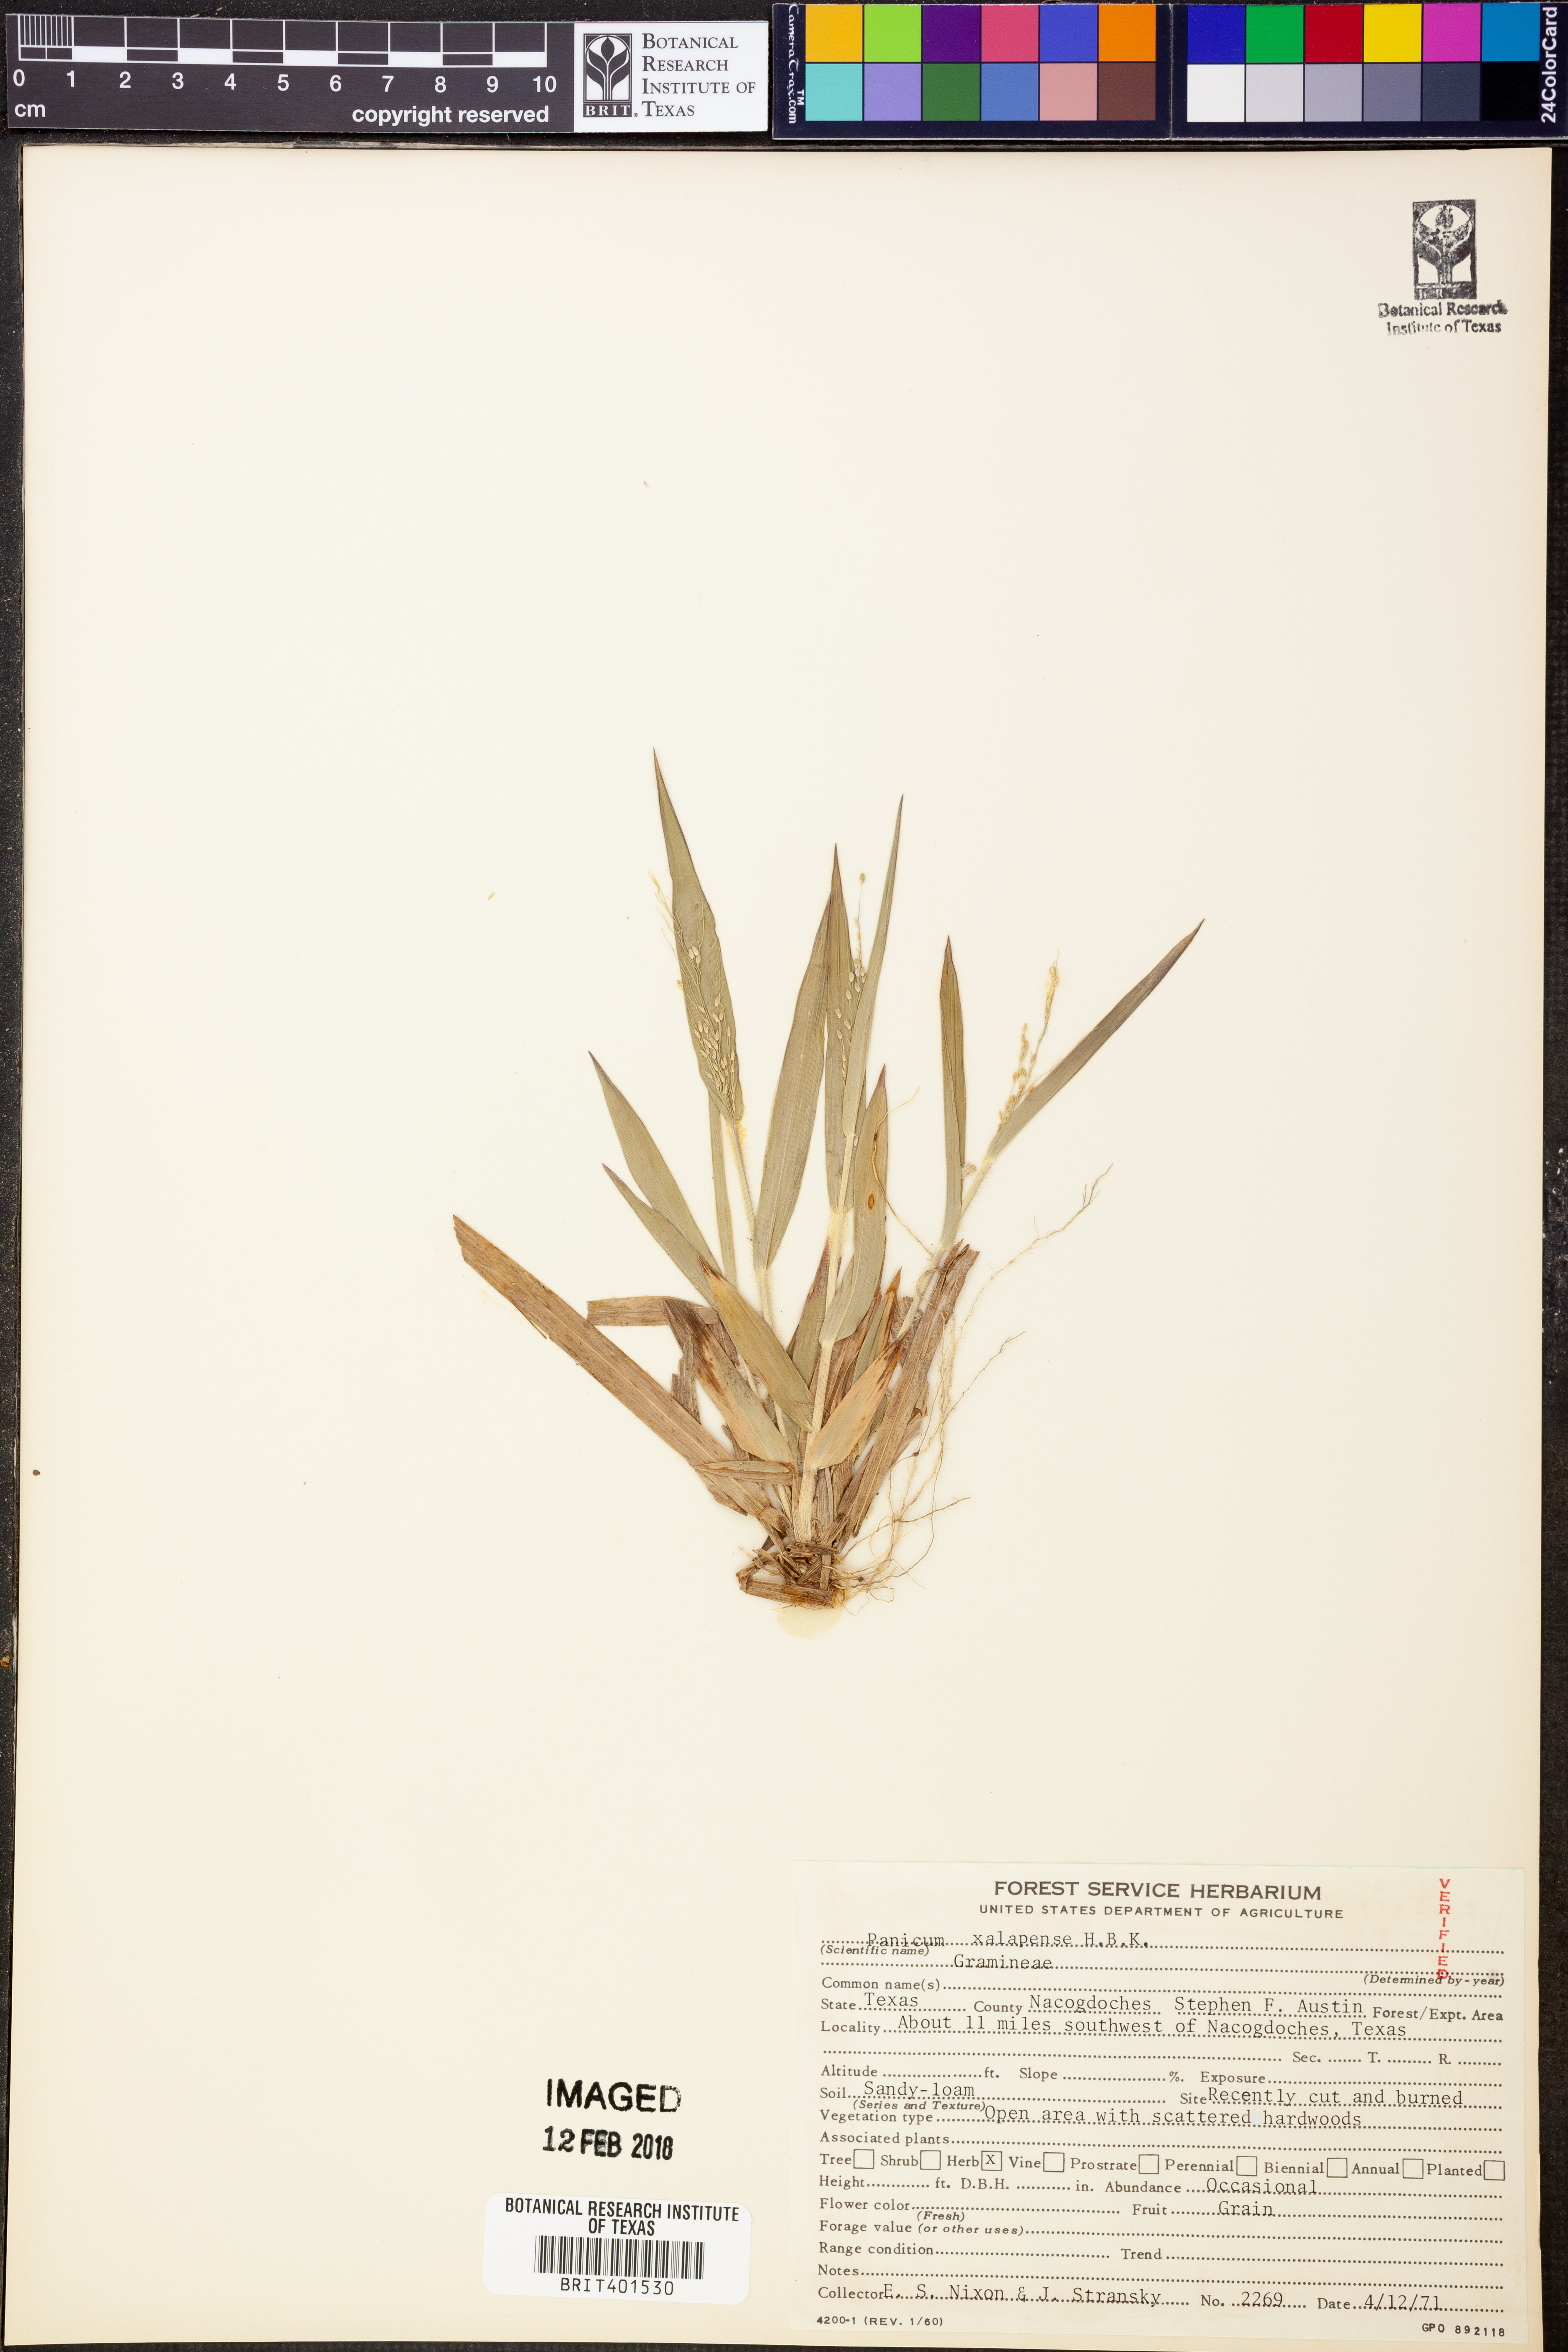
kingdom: Plantae
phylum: Tracheophyta
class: Liliopsida
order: Poales
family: Poaceae
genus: Dichanthelium
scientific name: Dichanthelium xalapense
